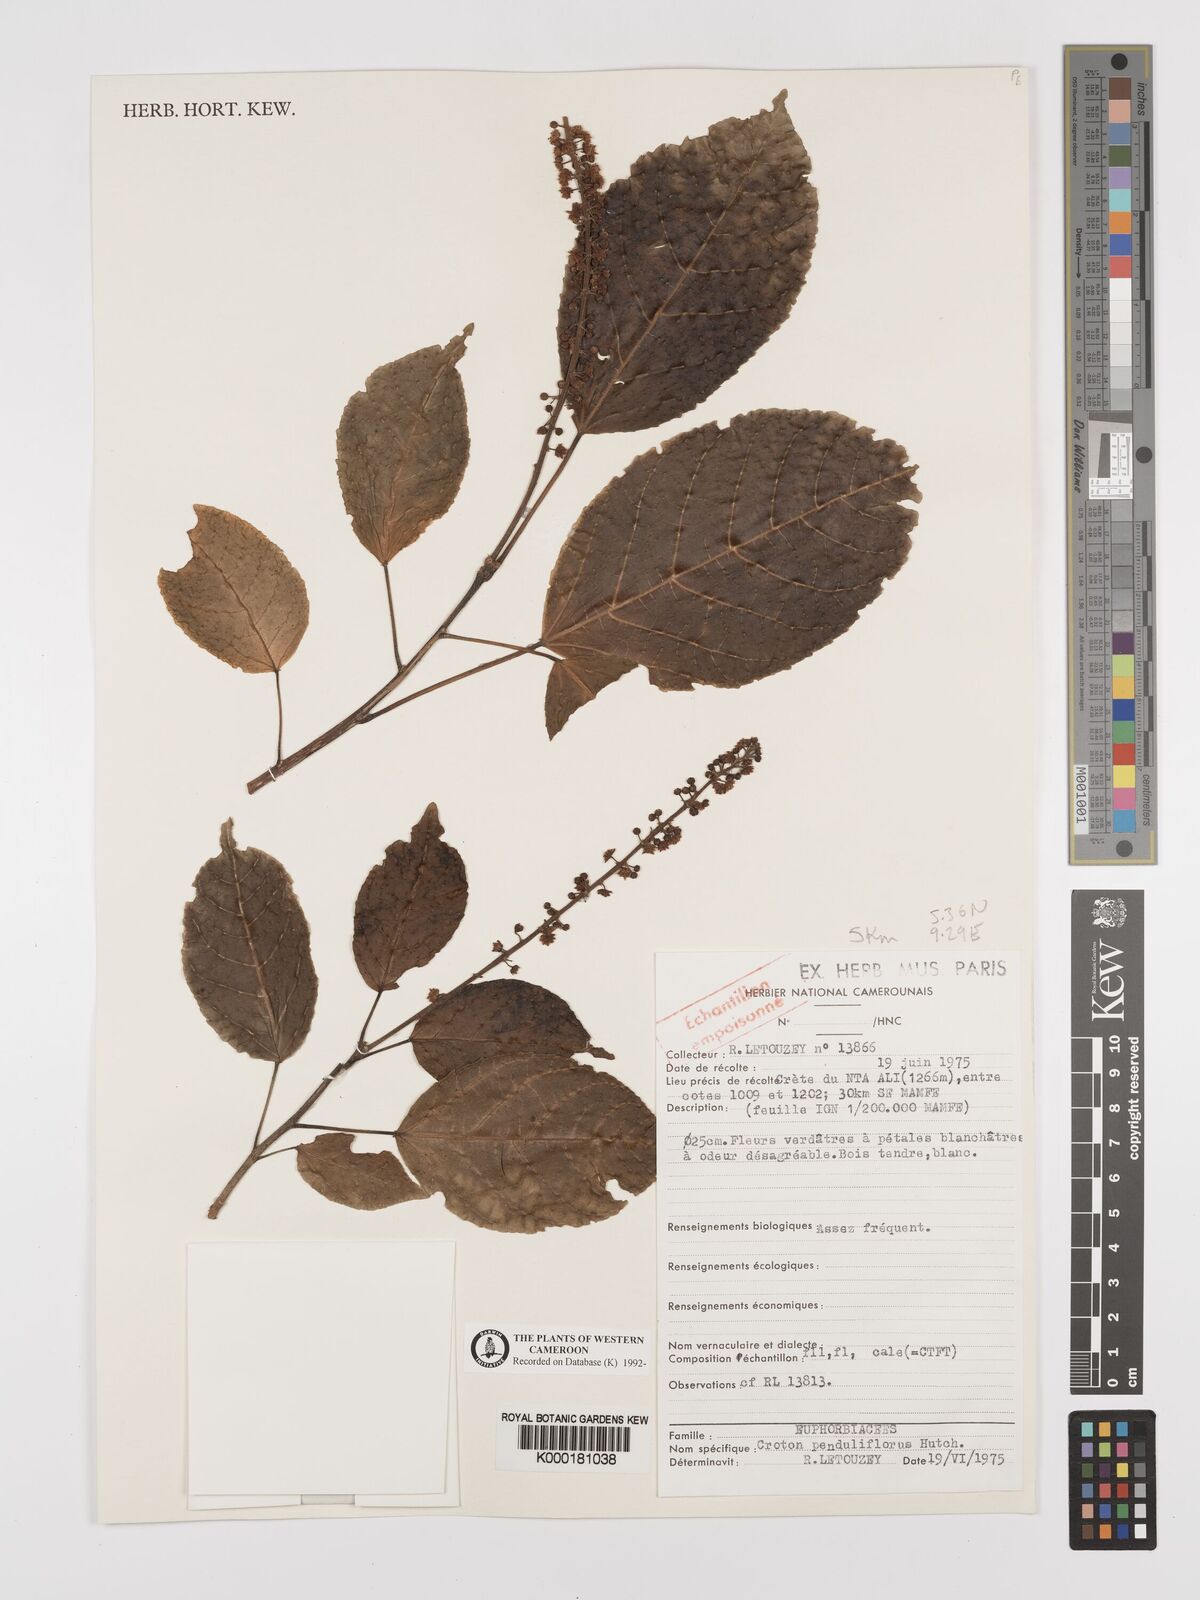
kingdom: Plantae
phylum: Tracheophyta
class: Magnoliopsida
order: Malpighiales
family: Euphorbiaceae
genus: Croton
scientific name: Croton penduliflorus
